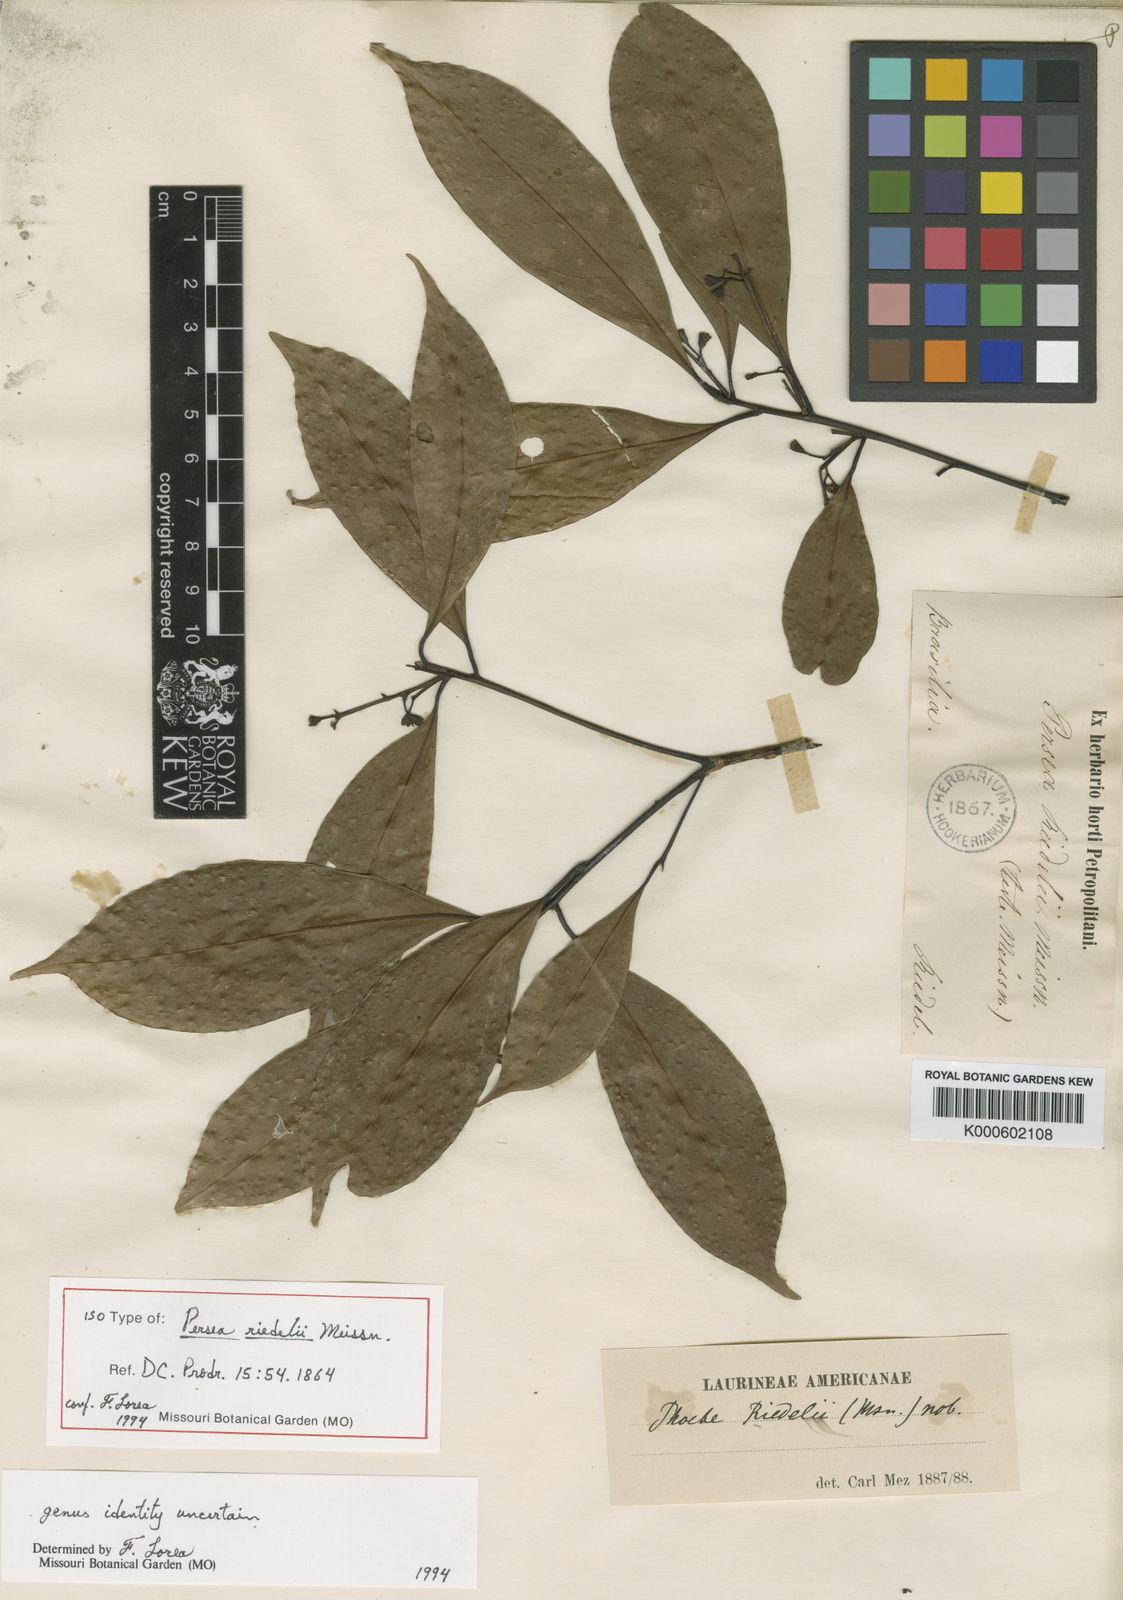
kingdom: Plantae
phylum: Tracheophyta
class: Magnoliopsida
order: Laurales
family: Lauraceae
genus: Ocotea
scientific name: Ocotea mandioccana
